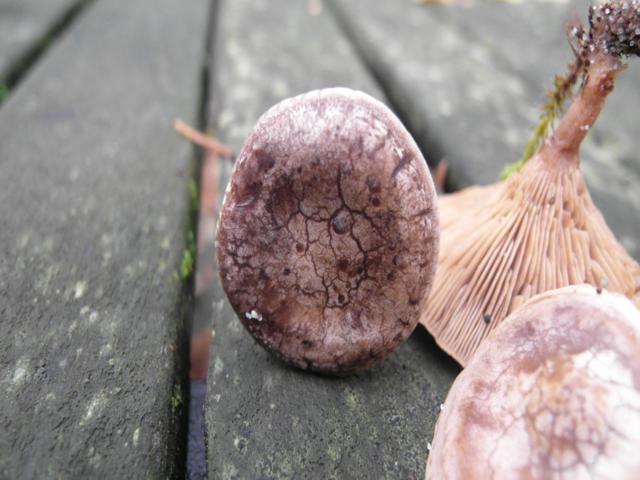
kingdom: Fungi
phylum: Basidiomycota
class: Agaricomycetes
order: Agaricales
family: Tricholomataceae
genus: Lulesia
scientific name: Lulesia
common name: sortnende troldhat
